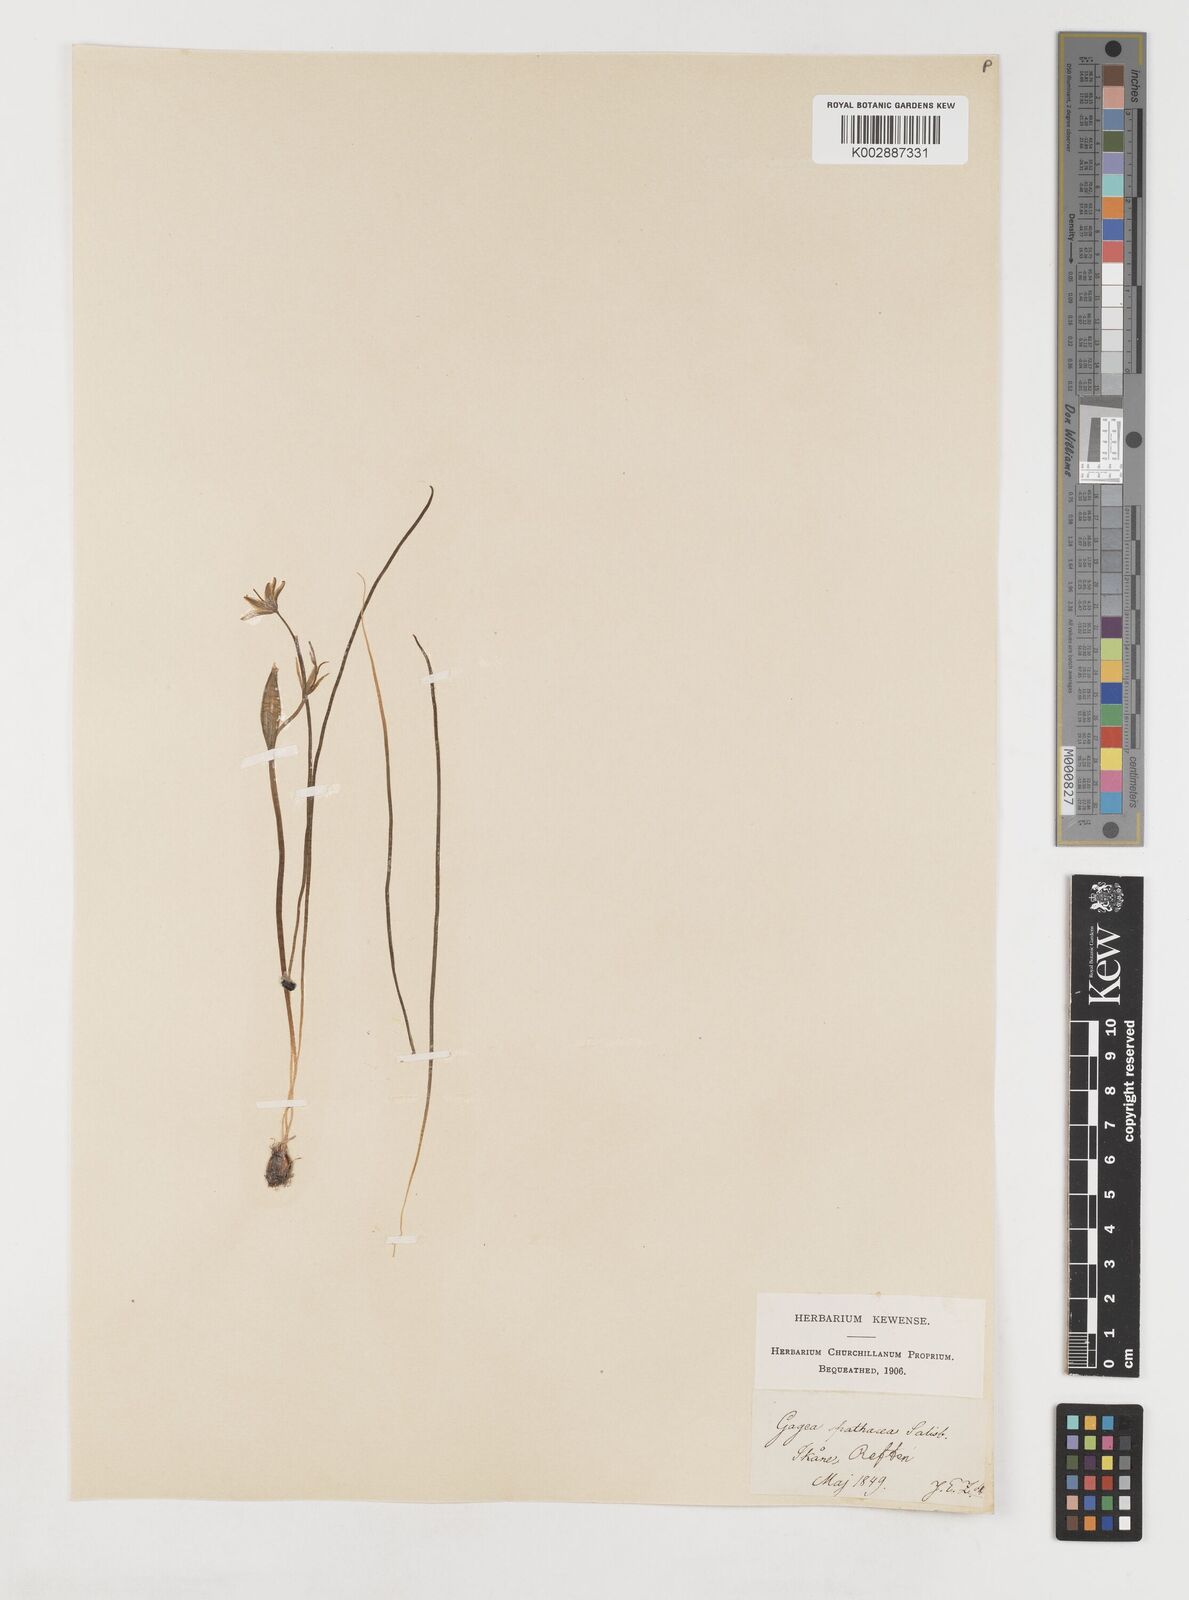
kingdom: Plantae
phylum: Tracheophyta
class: Liliopsida
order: Liliales
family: Liliaceae
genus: Gagea
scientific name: Gagea spathacea
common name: Belgian gagea
